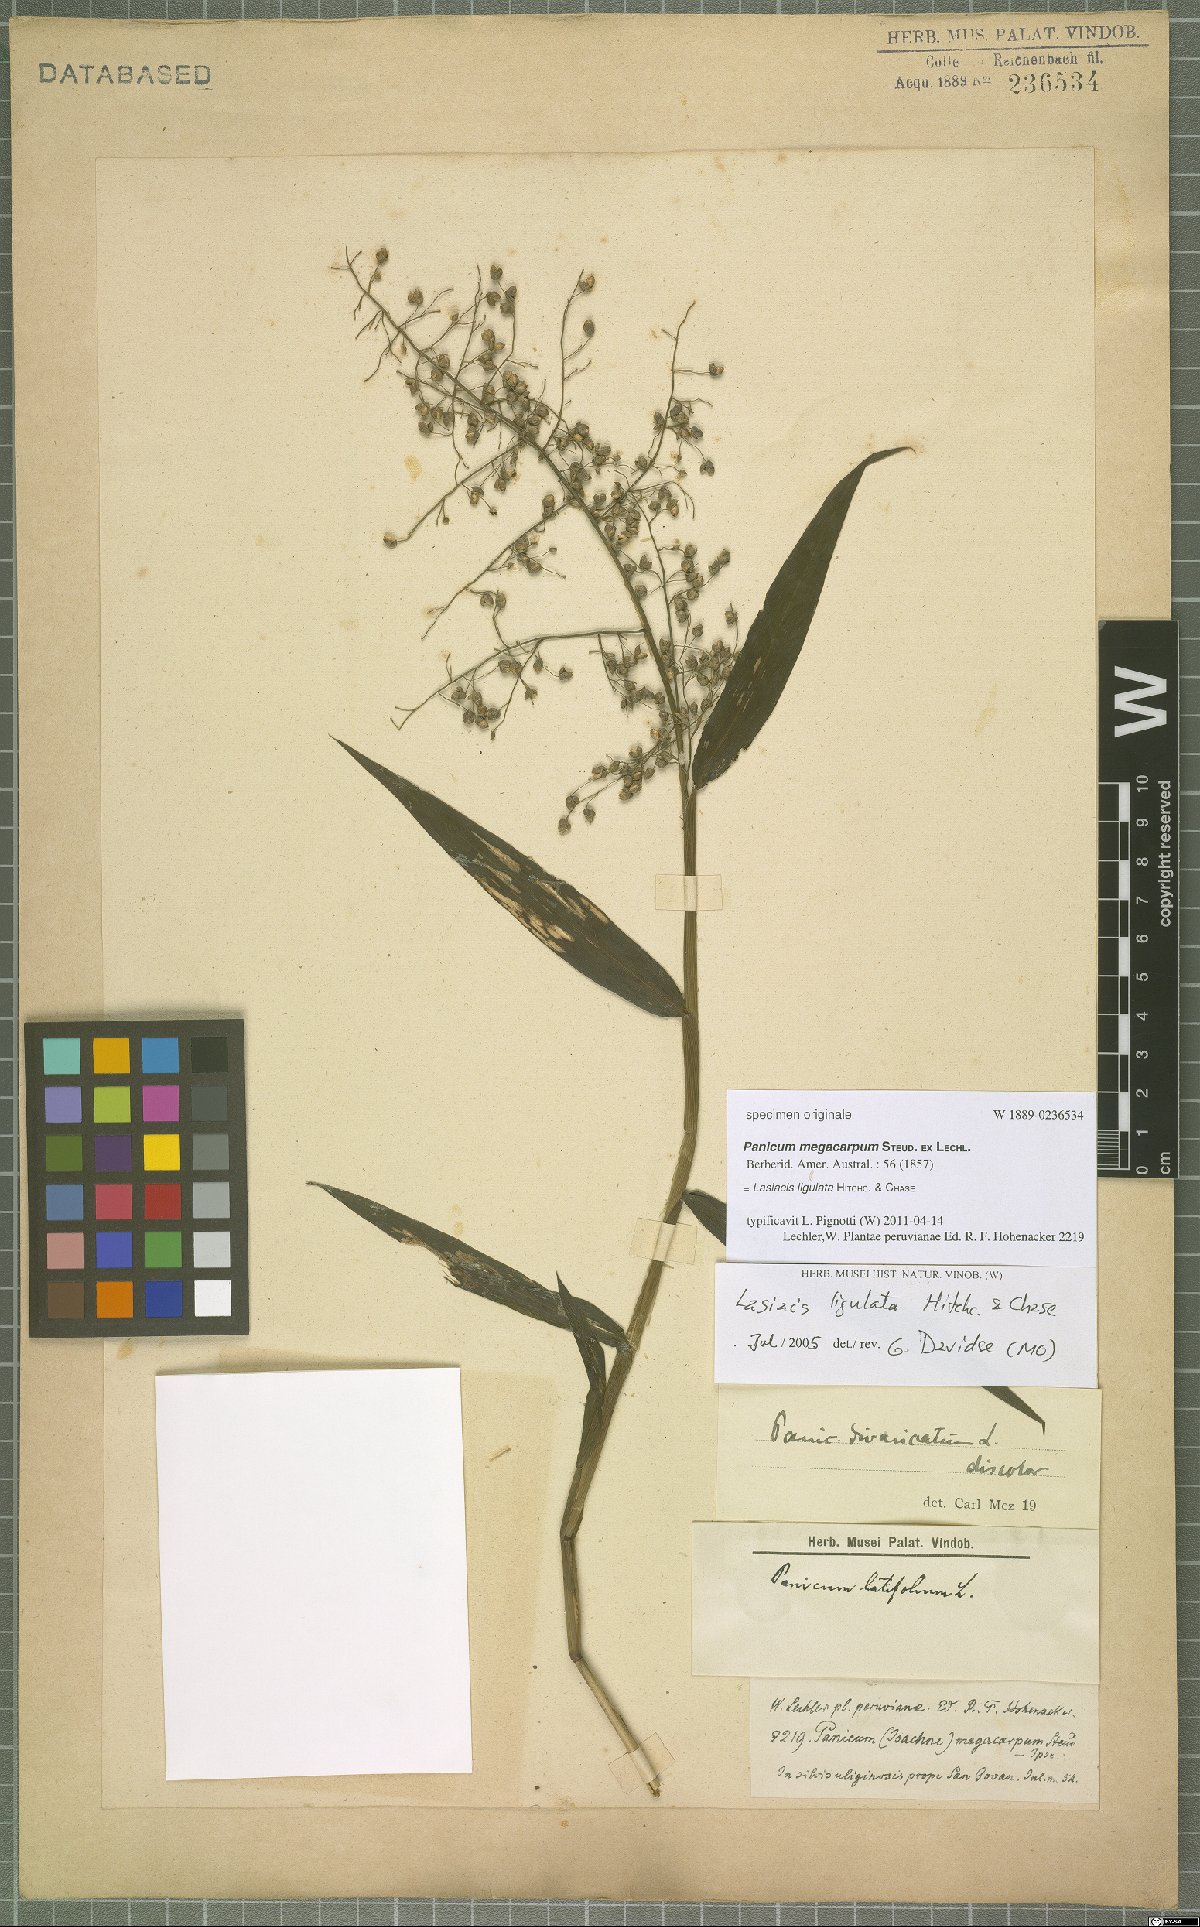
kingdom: Plantae
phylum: Tracheophyta
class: Liliopsida
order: Poales
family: Poaceae
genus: Lasiacis
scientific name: Lasiacis ligulata
